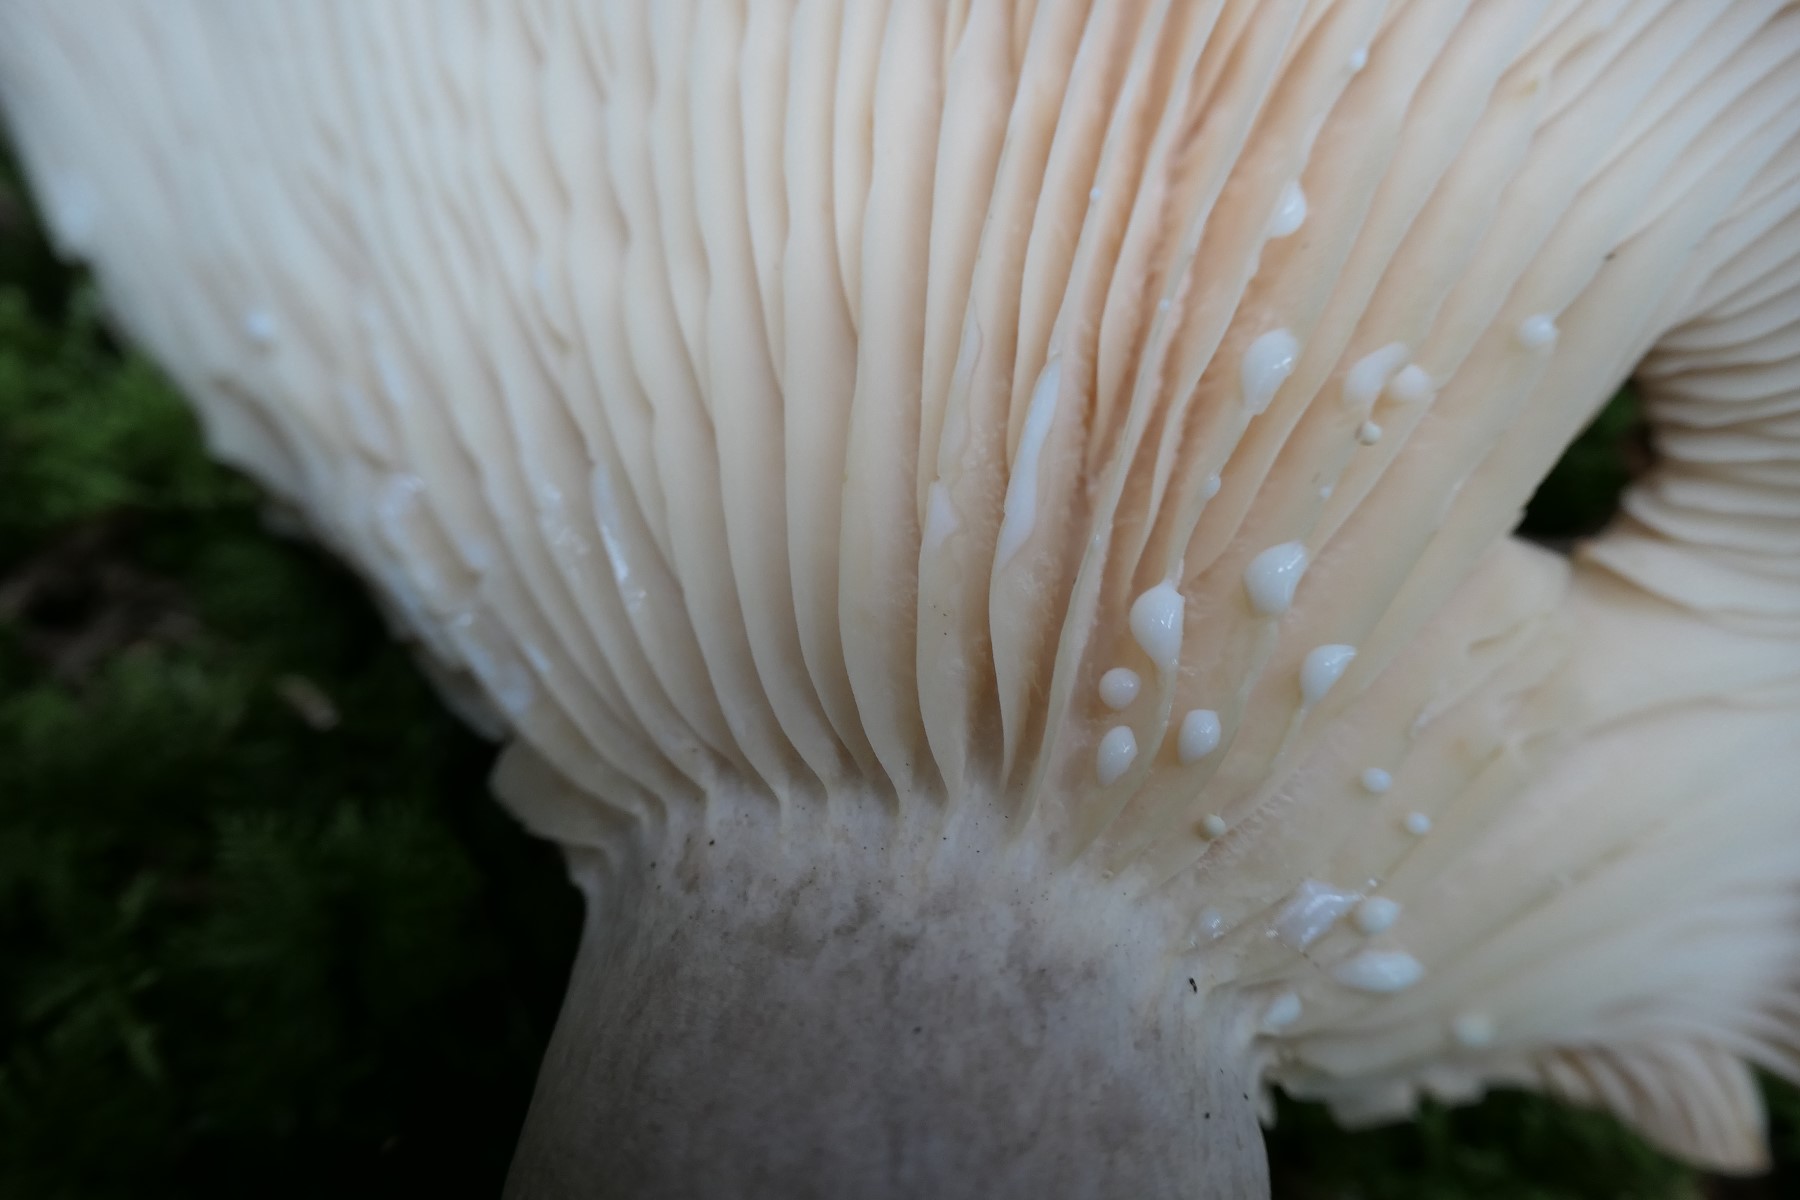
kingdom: Fungi
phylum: Basidiomycota
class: Agaricomycetes
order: Russulales
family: Russulaceae
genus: Lactarius
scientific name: Lactarius flexuosus
